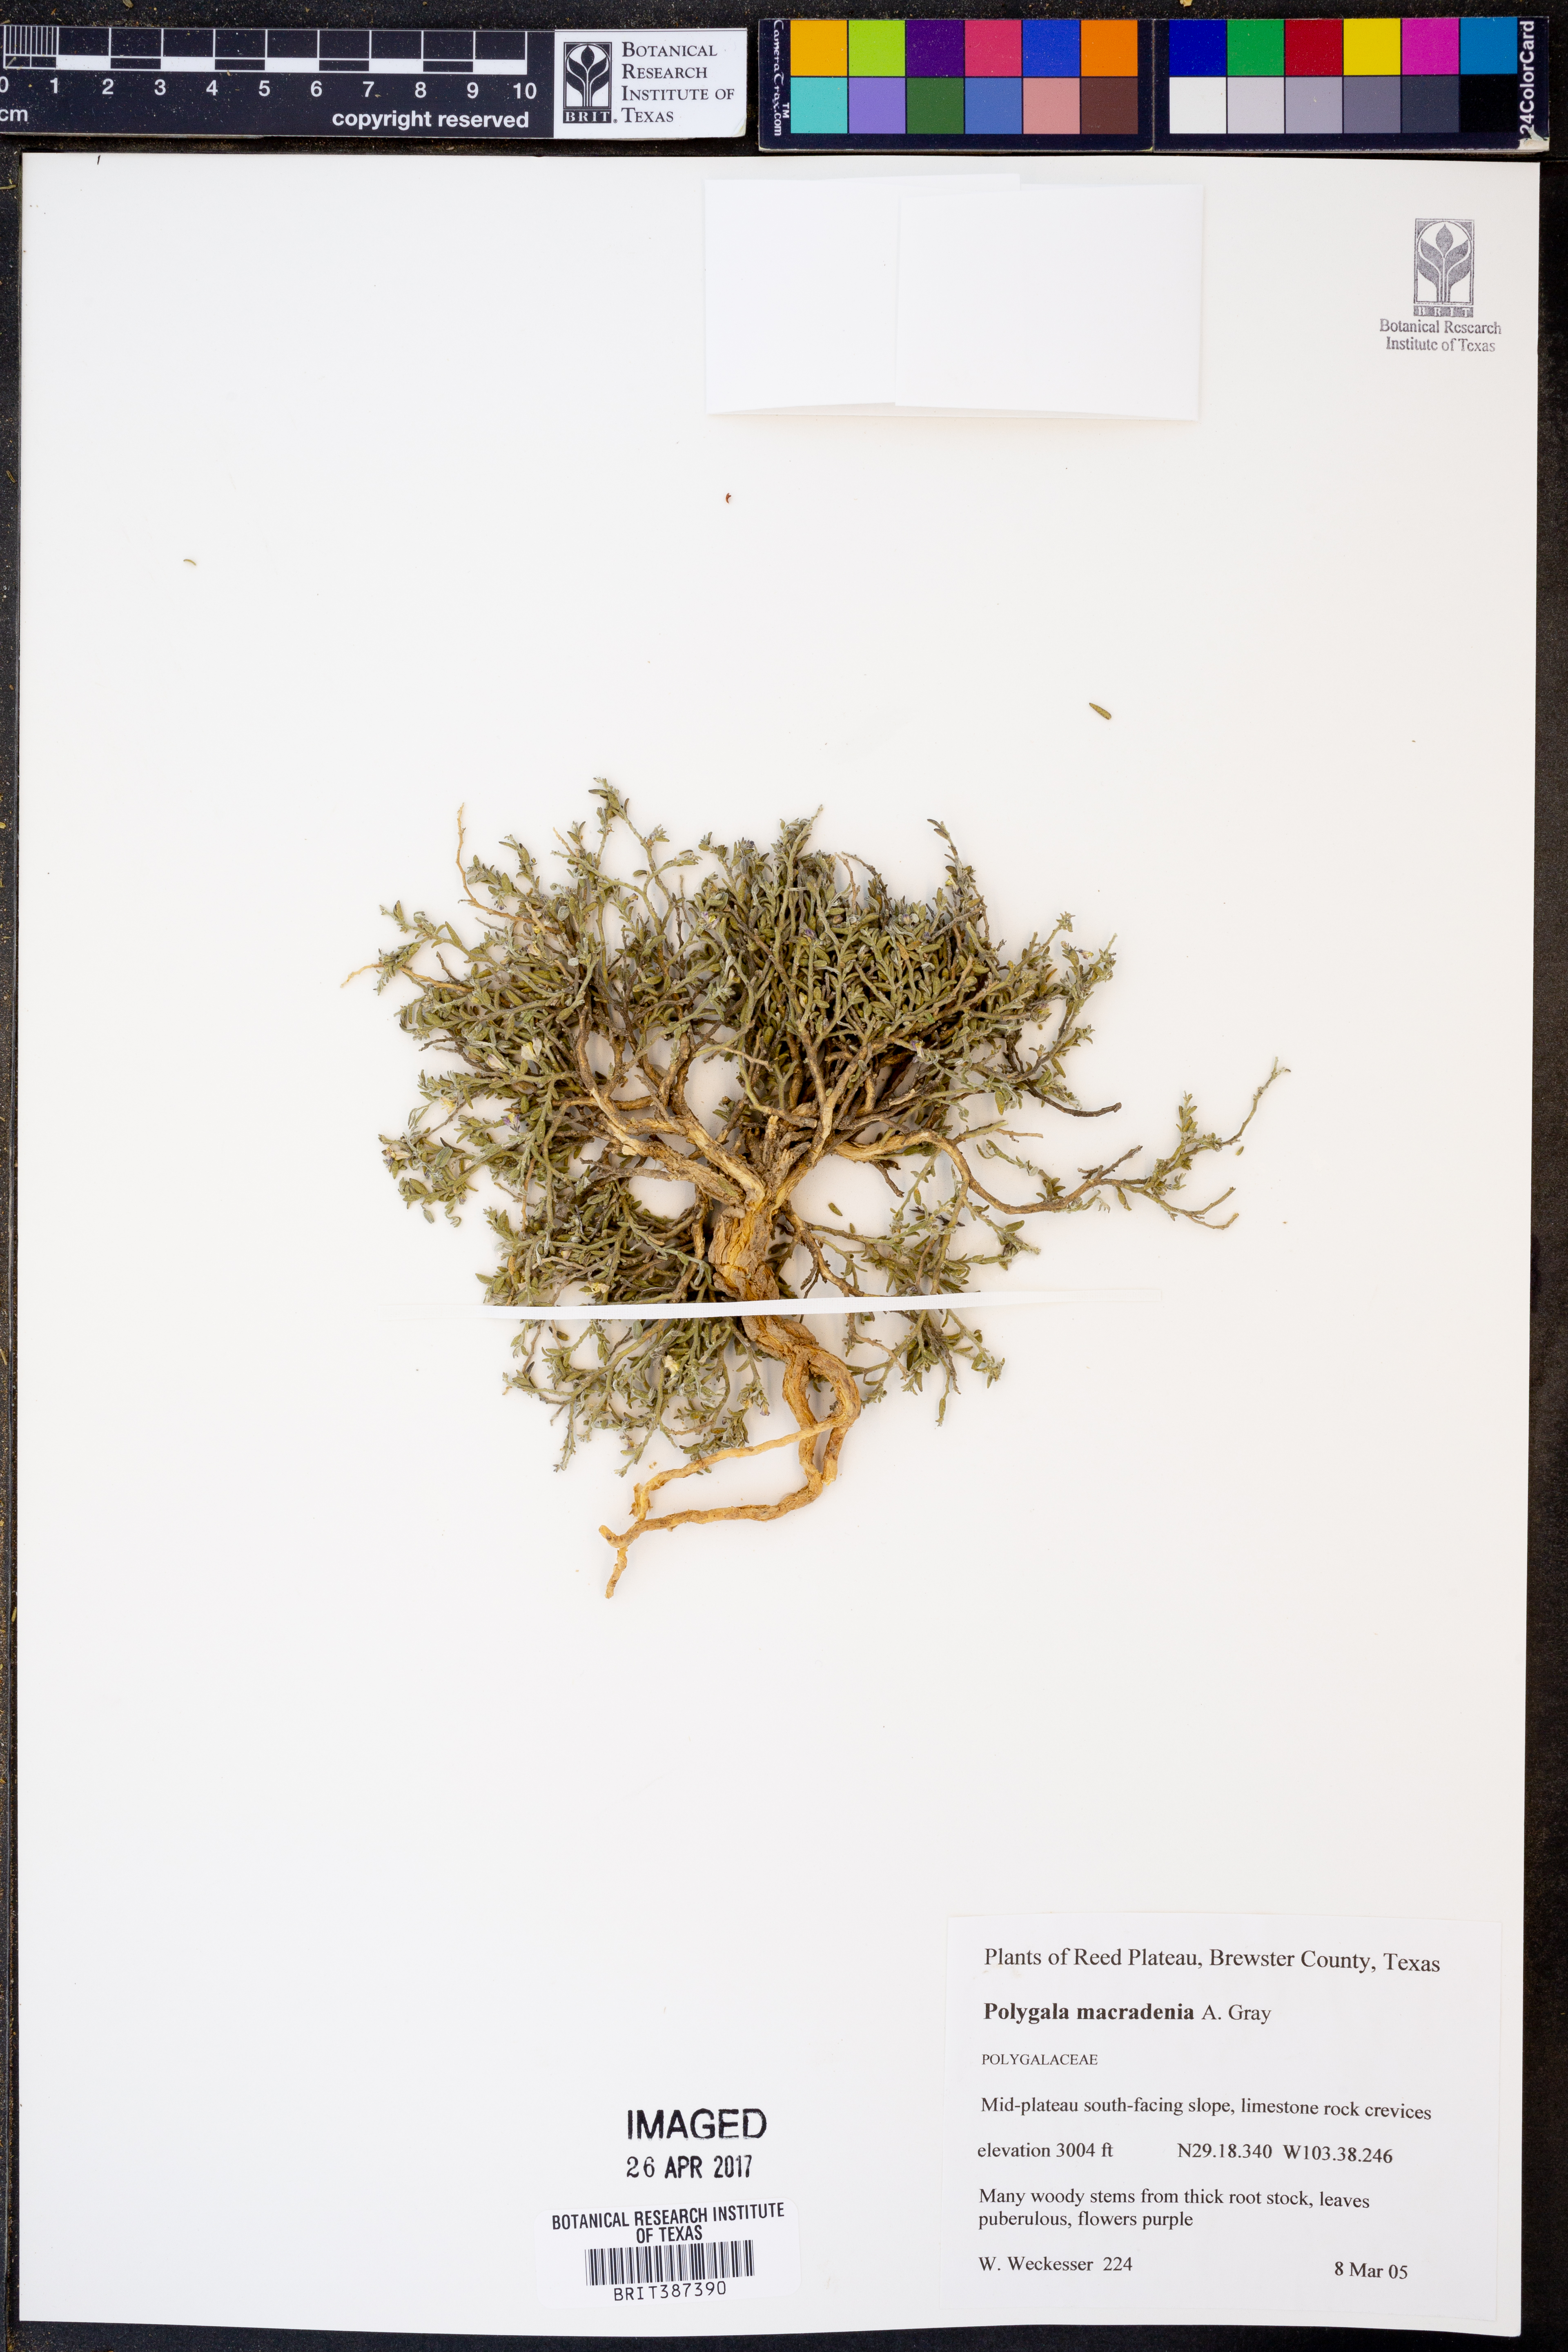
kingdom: Plantae
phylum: Tracheophyta
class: Magnoliopsida
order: Fabales
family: Polygalaceae
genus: Hebecarpa
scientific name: Hebecarpa macradenia
